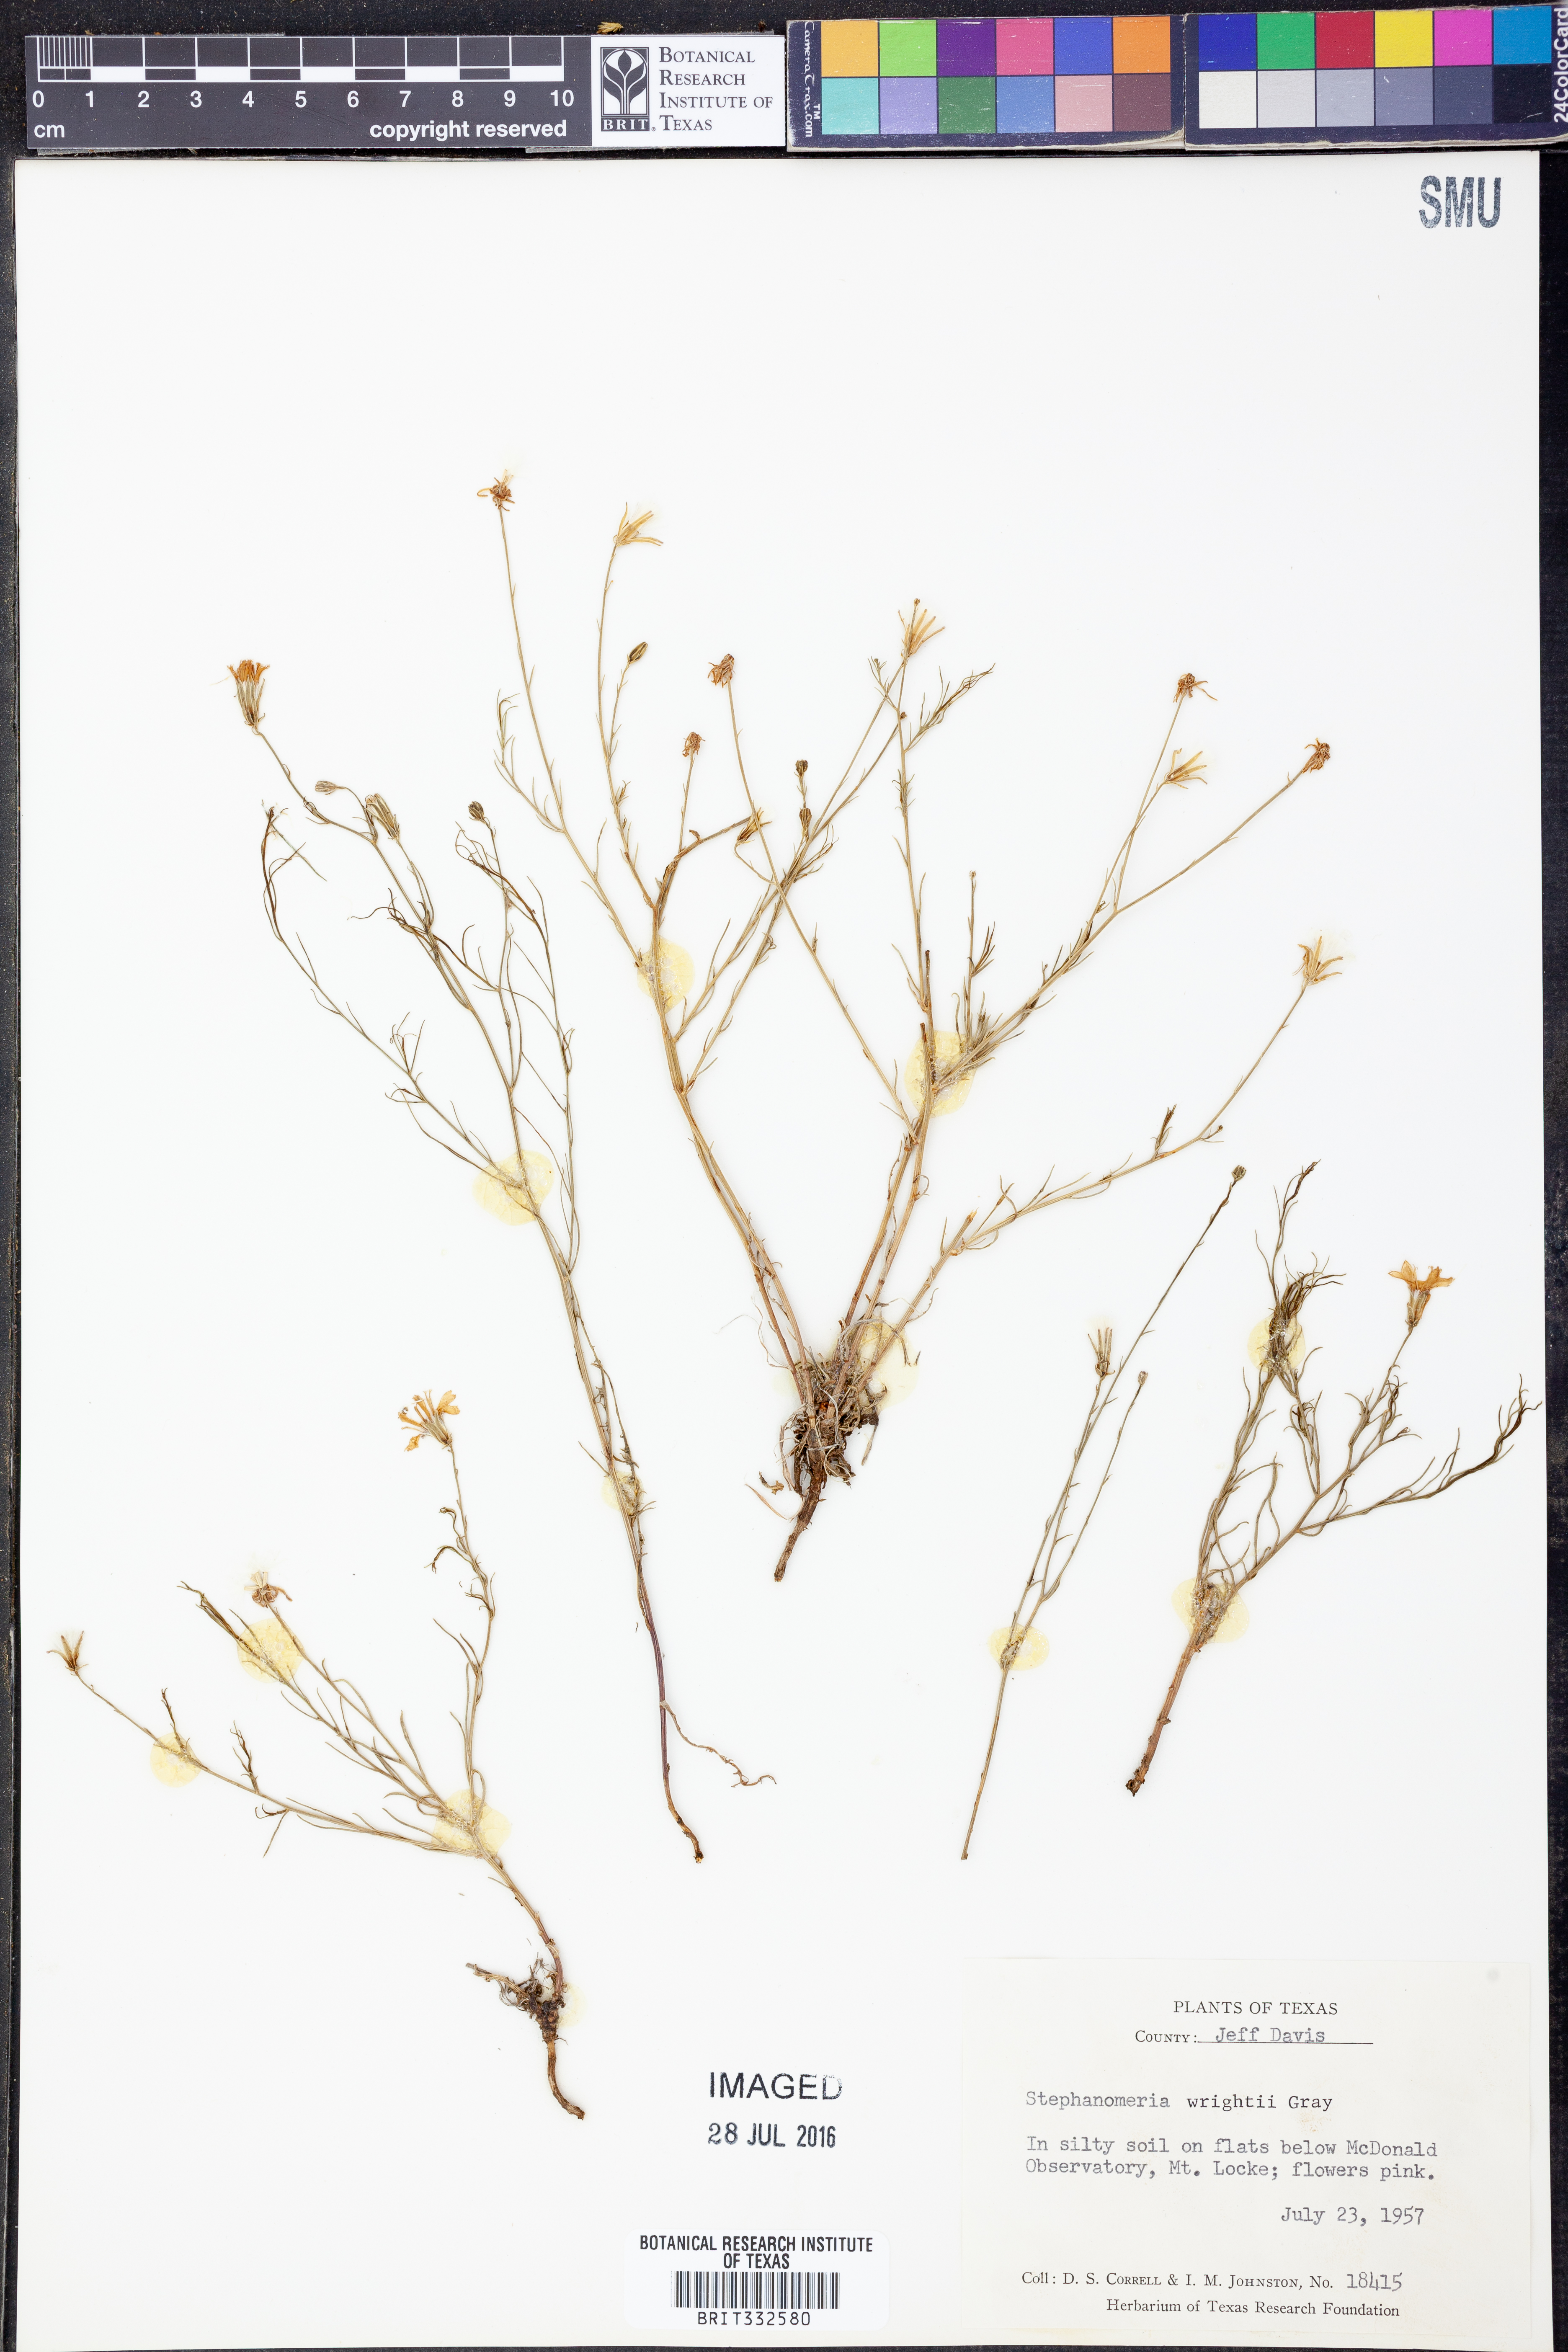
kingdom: Plantae
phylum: Tracheophyta
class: Magnoliopsida
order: Asterales
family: Asteraceae
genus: Stephanomeria
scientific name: Stephanomeria tenuifolia
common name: Slender wirelettuce
